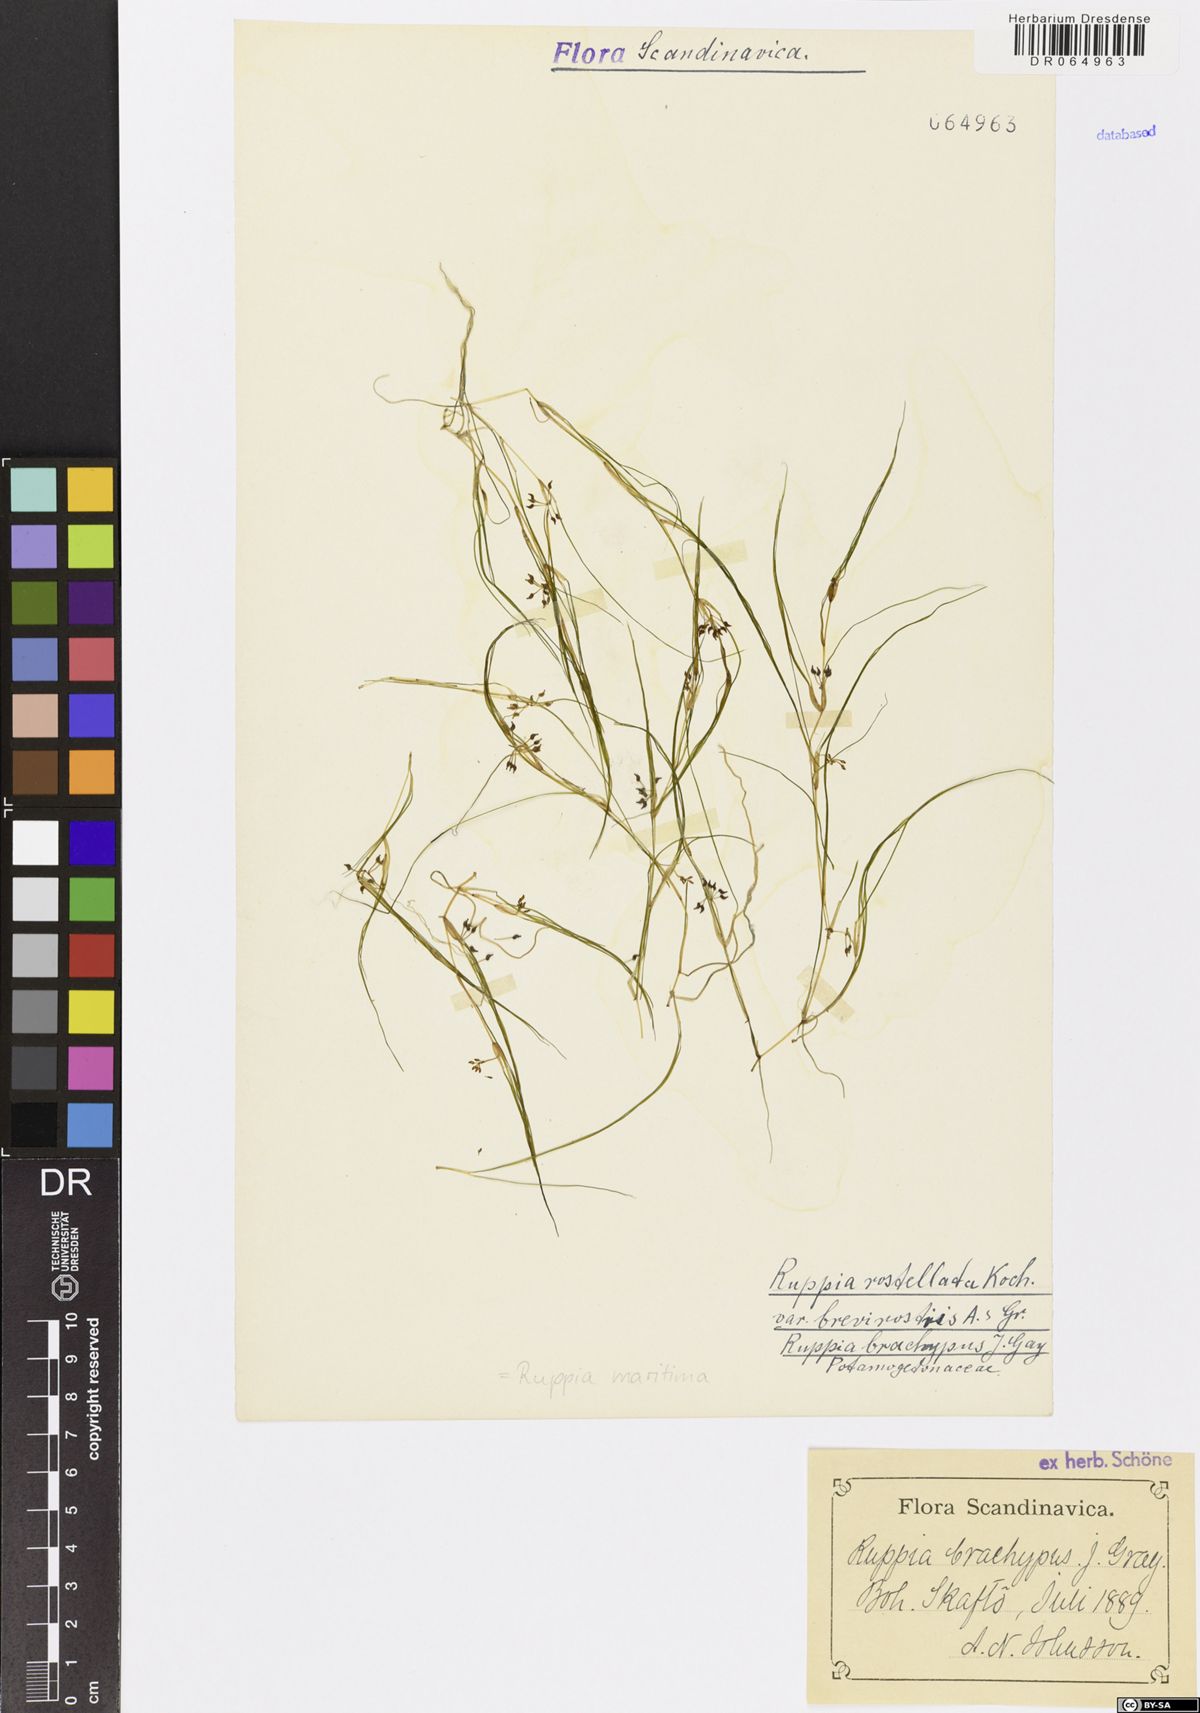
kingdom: Plantae
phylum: Tracheophyta
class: Liliopsida
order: Alismatales
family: Ruppiaceae
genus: Ruppia
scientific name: Ruppia maritima
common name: Beaked tasselweed
